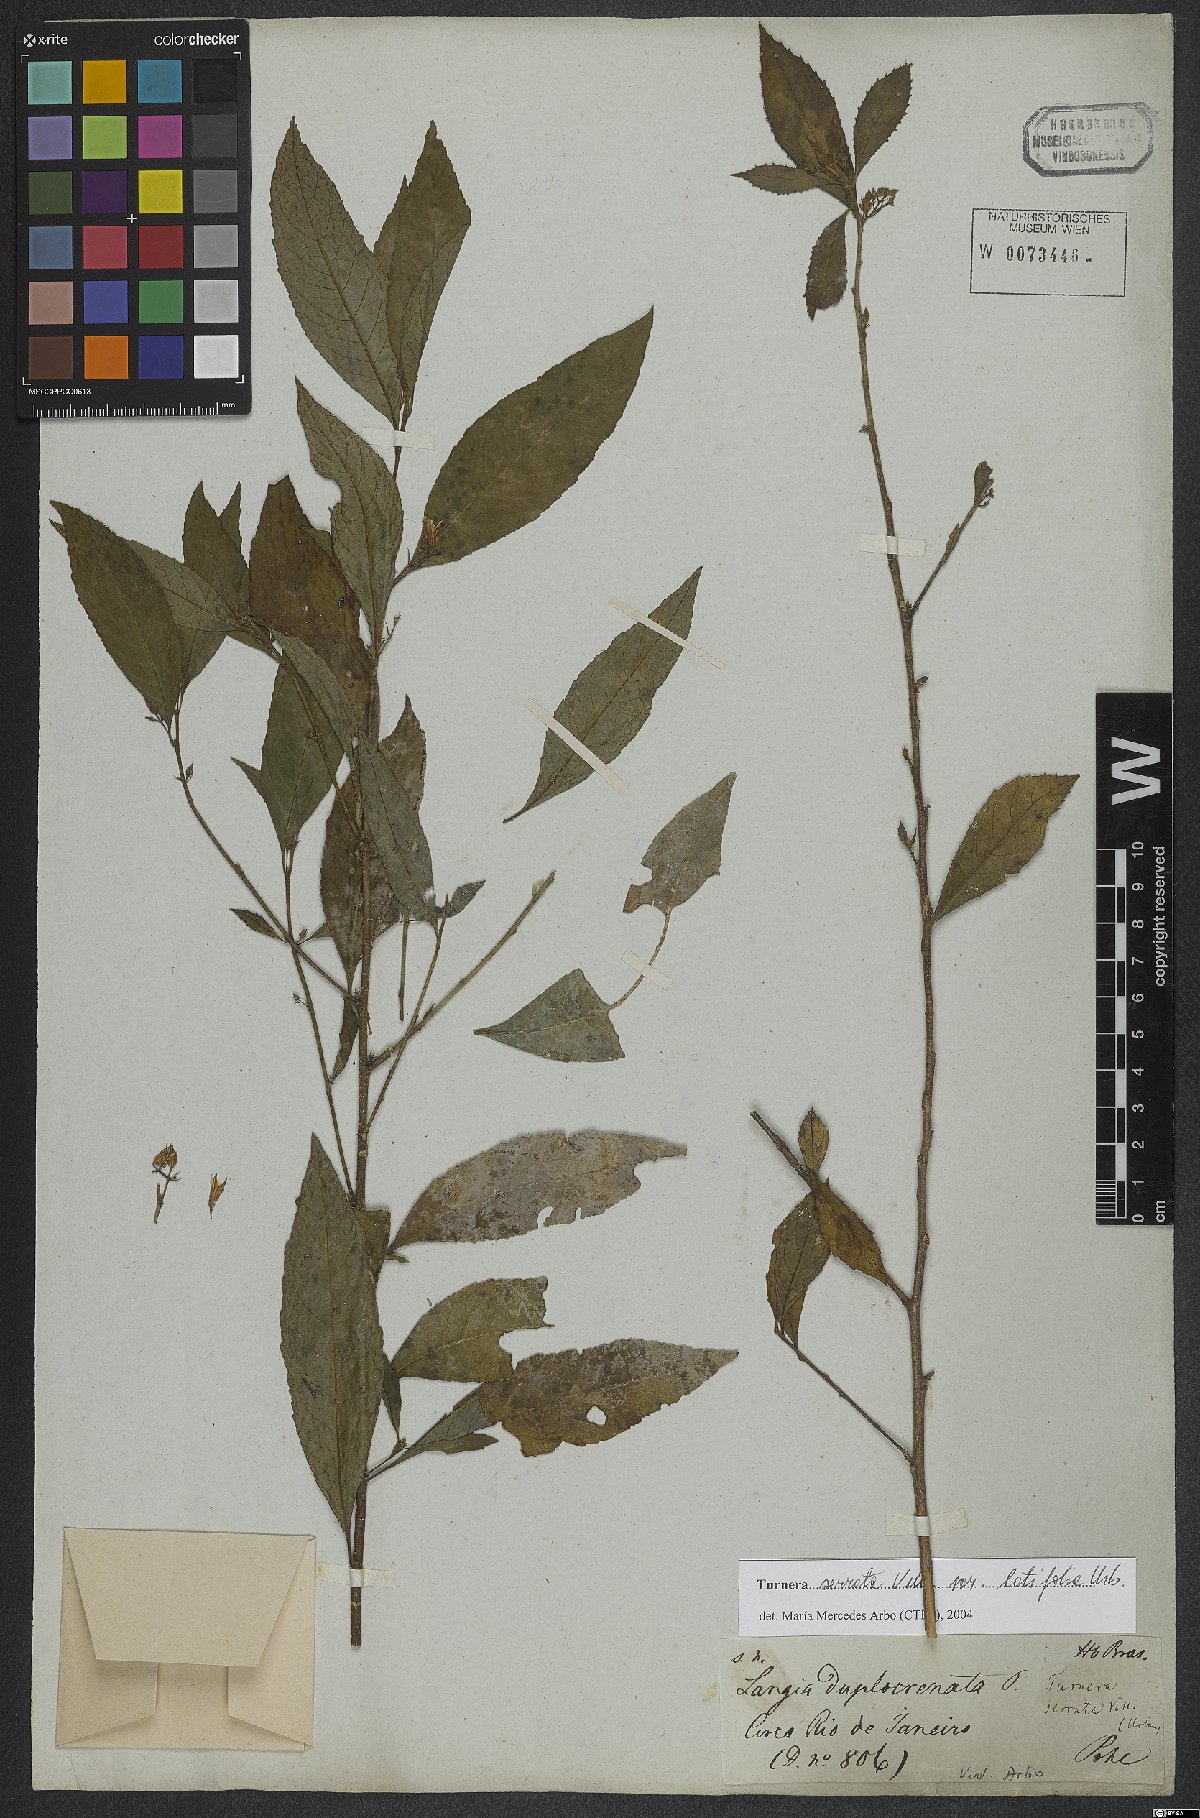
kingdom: Plantae
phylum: Tracheophyta
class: Magnoliopsida
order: Malpighiales
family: Turneraceae
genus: Turnera
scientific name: Turnera serrata
